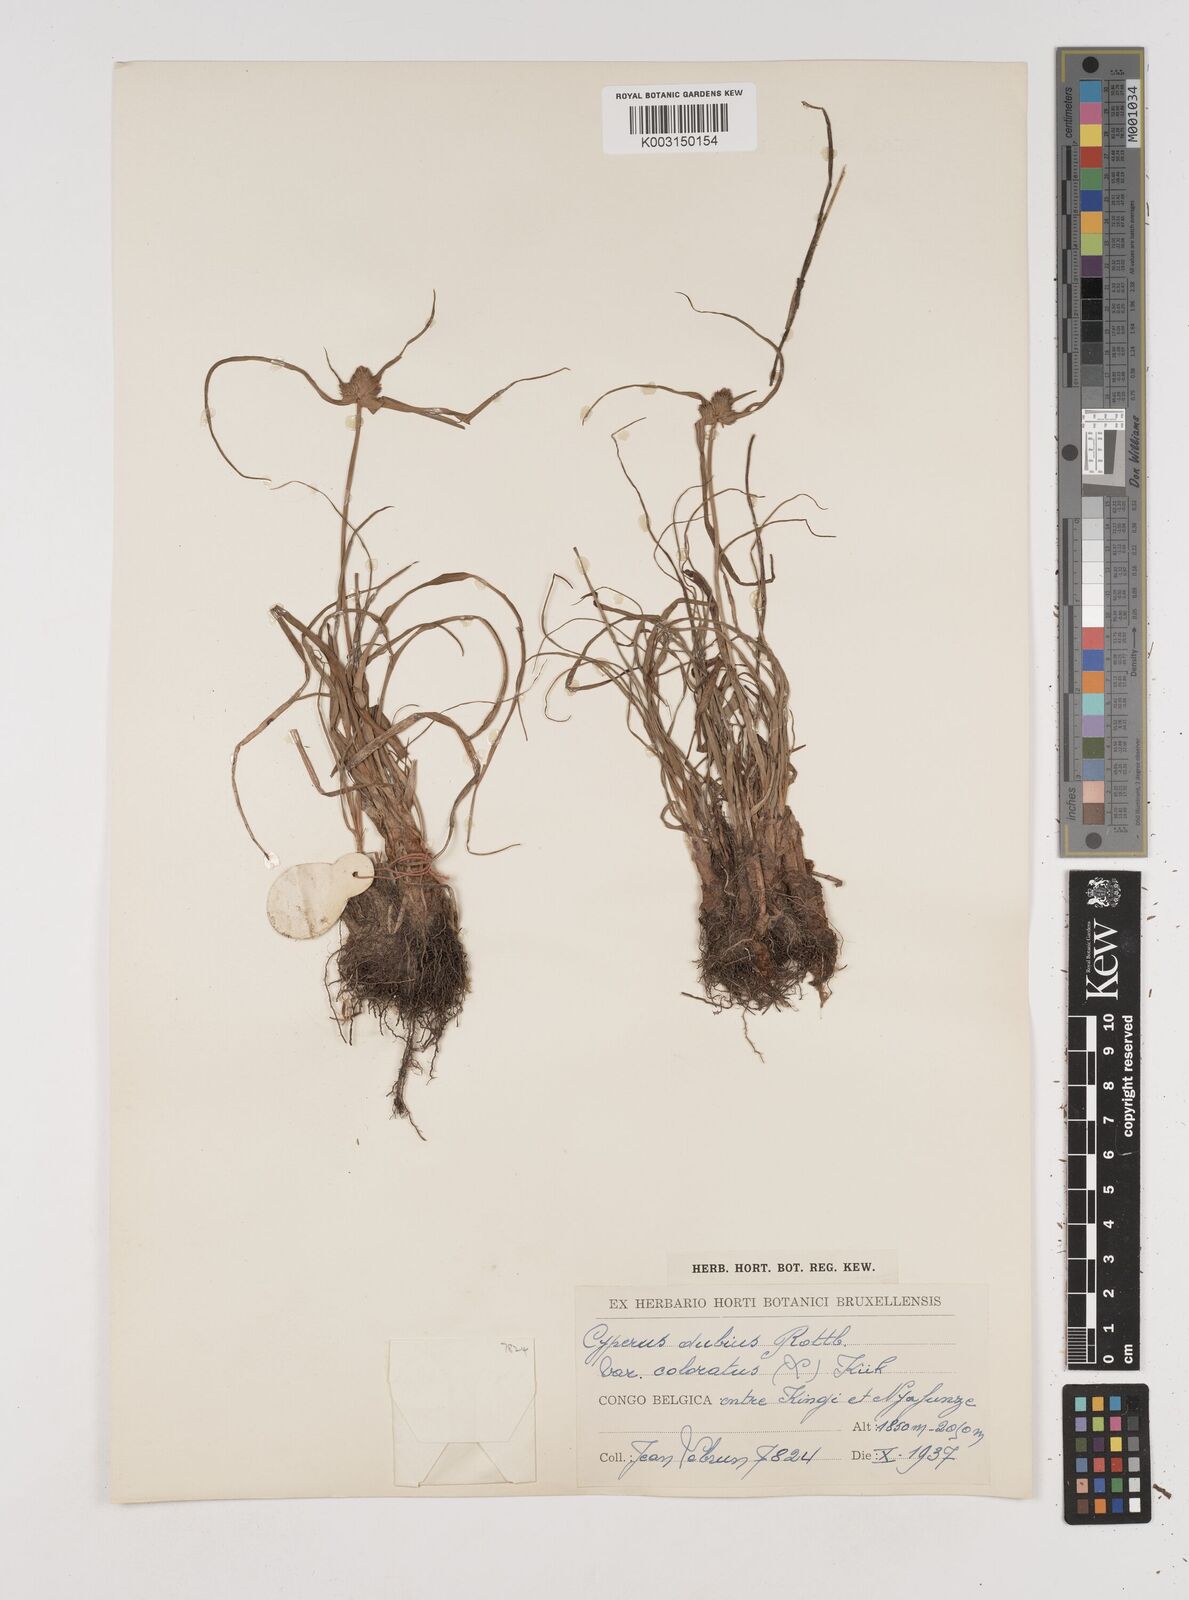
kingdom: Plantae
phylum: Tracheophyta
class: Liliopsida
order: Poales
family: Cyperaceae
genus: Cyperus
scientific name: Cyperus dubius
